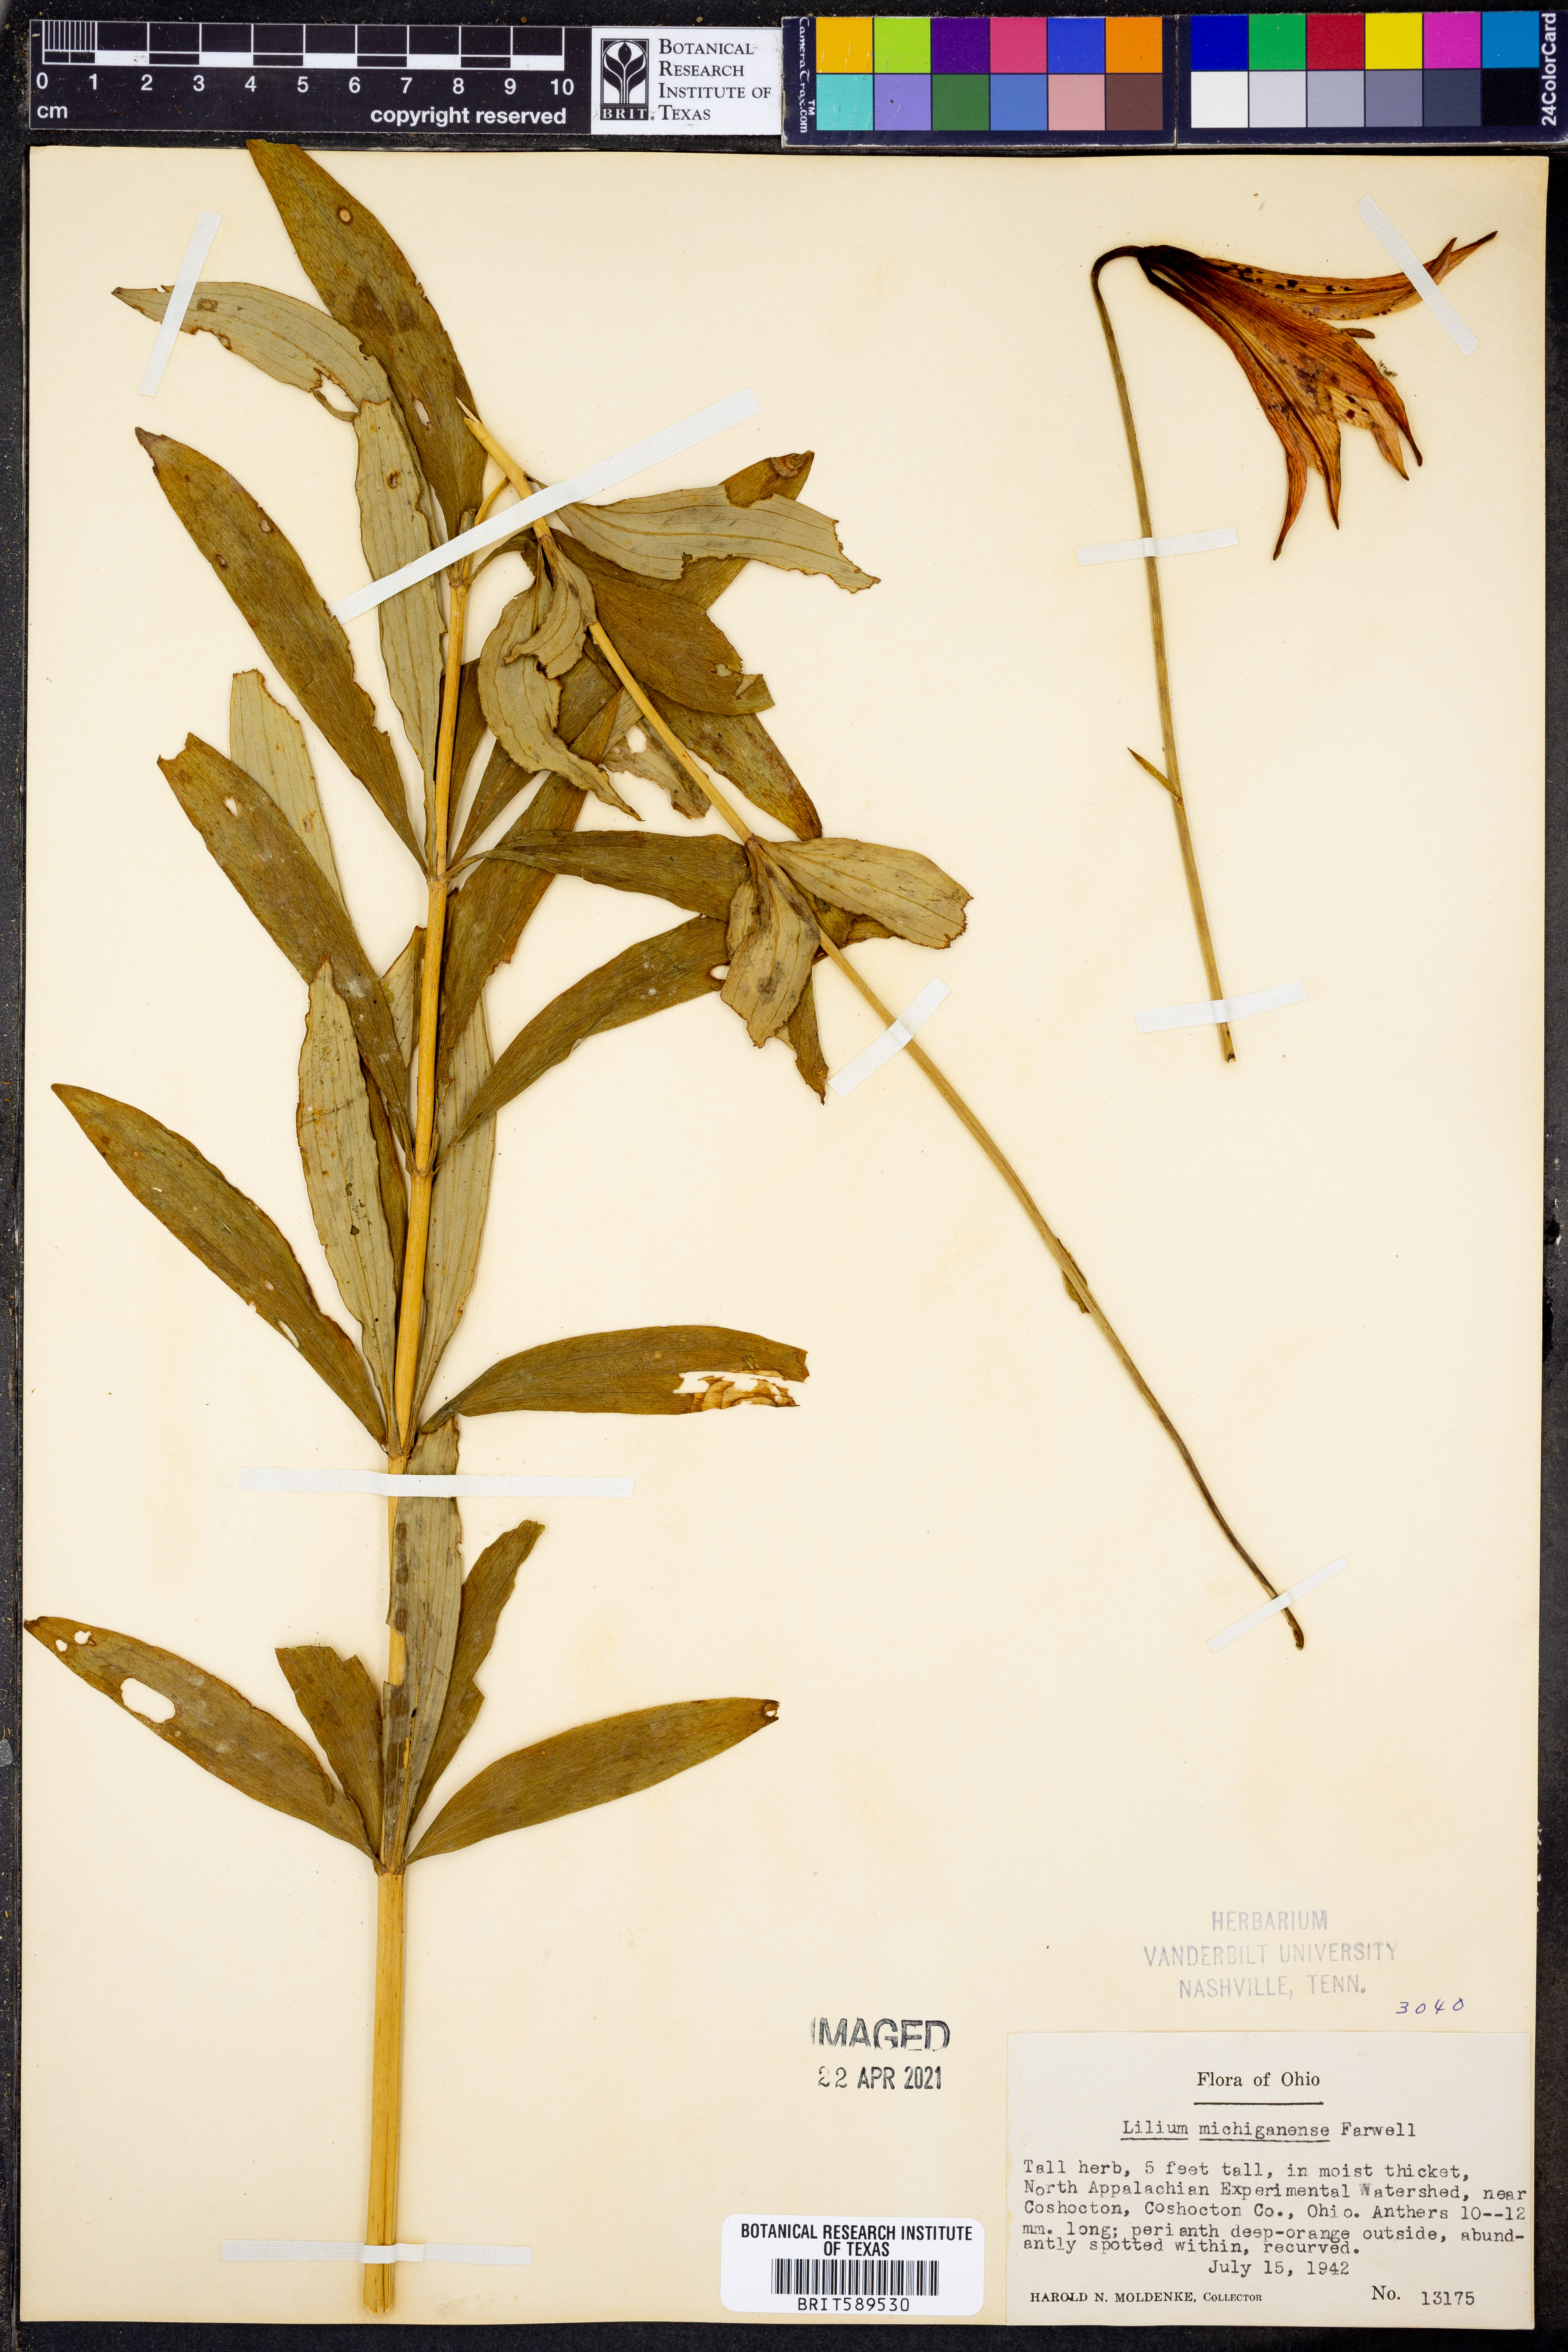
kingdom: Plantae
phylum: Tracheophyta
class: Liliopsida
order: Liliales
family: Liliaceae
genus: Lilium
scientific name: Lilium michiganense
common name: Michigan lily
